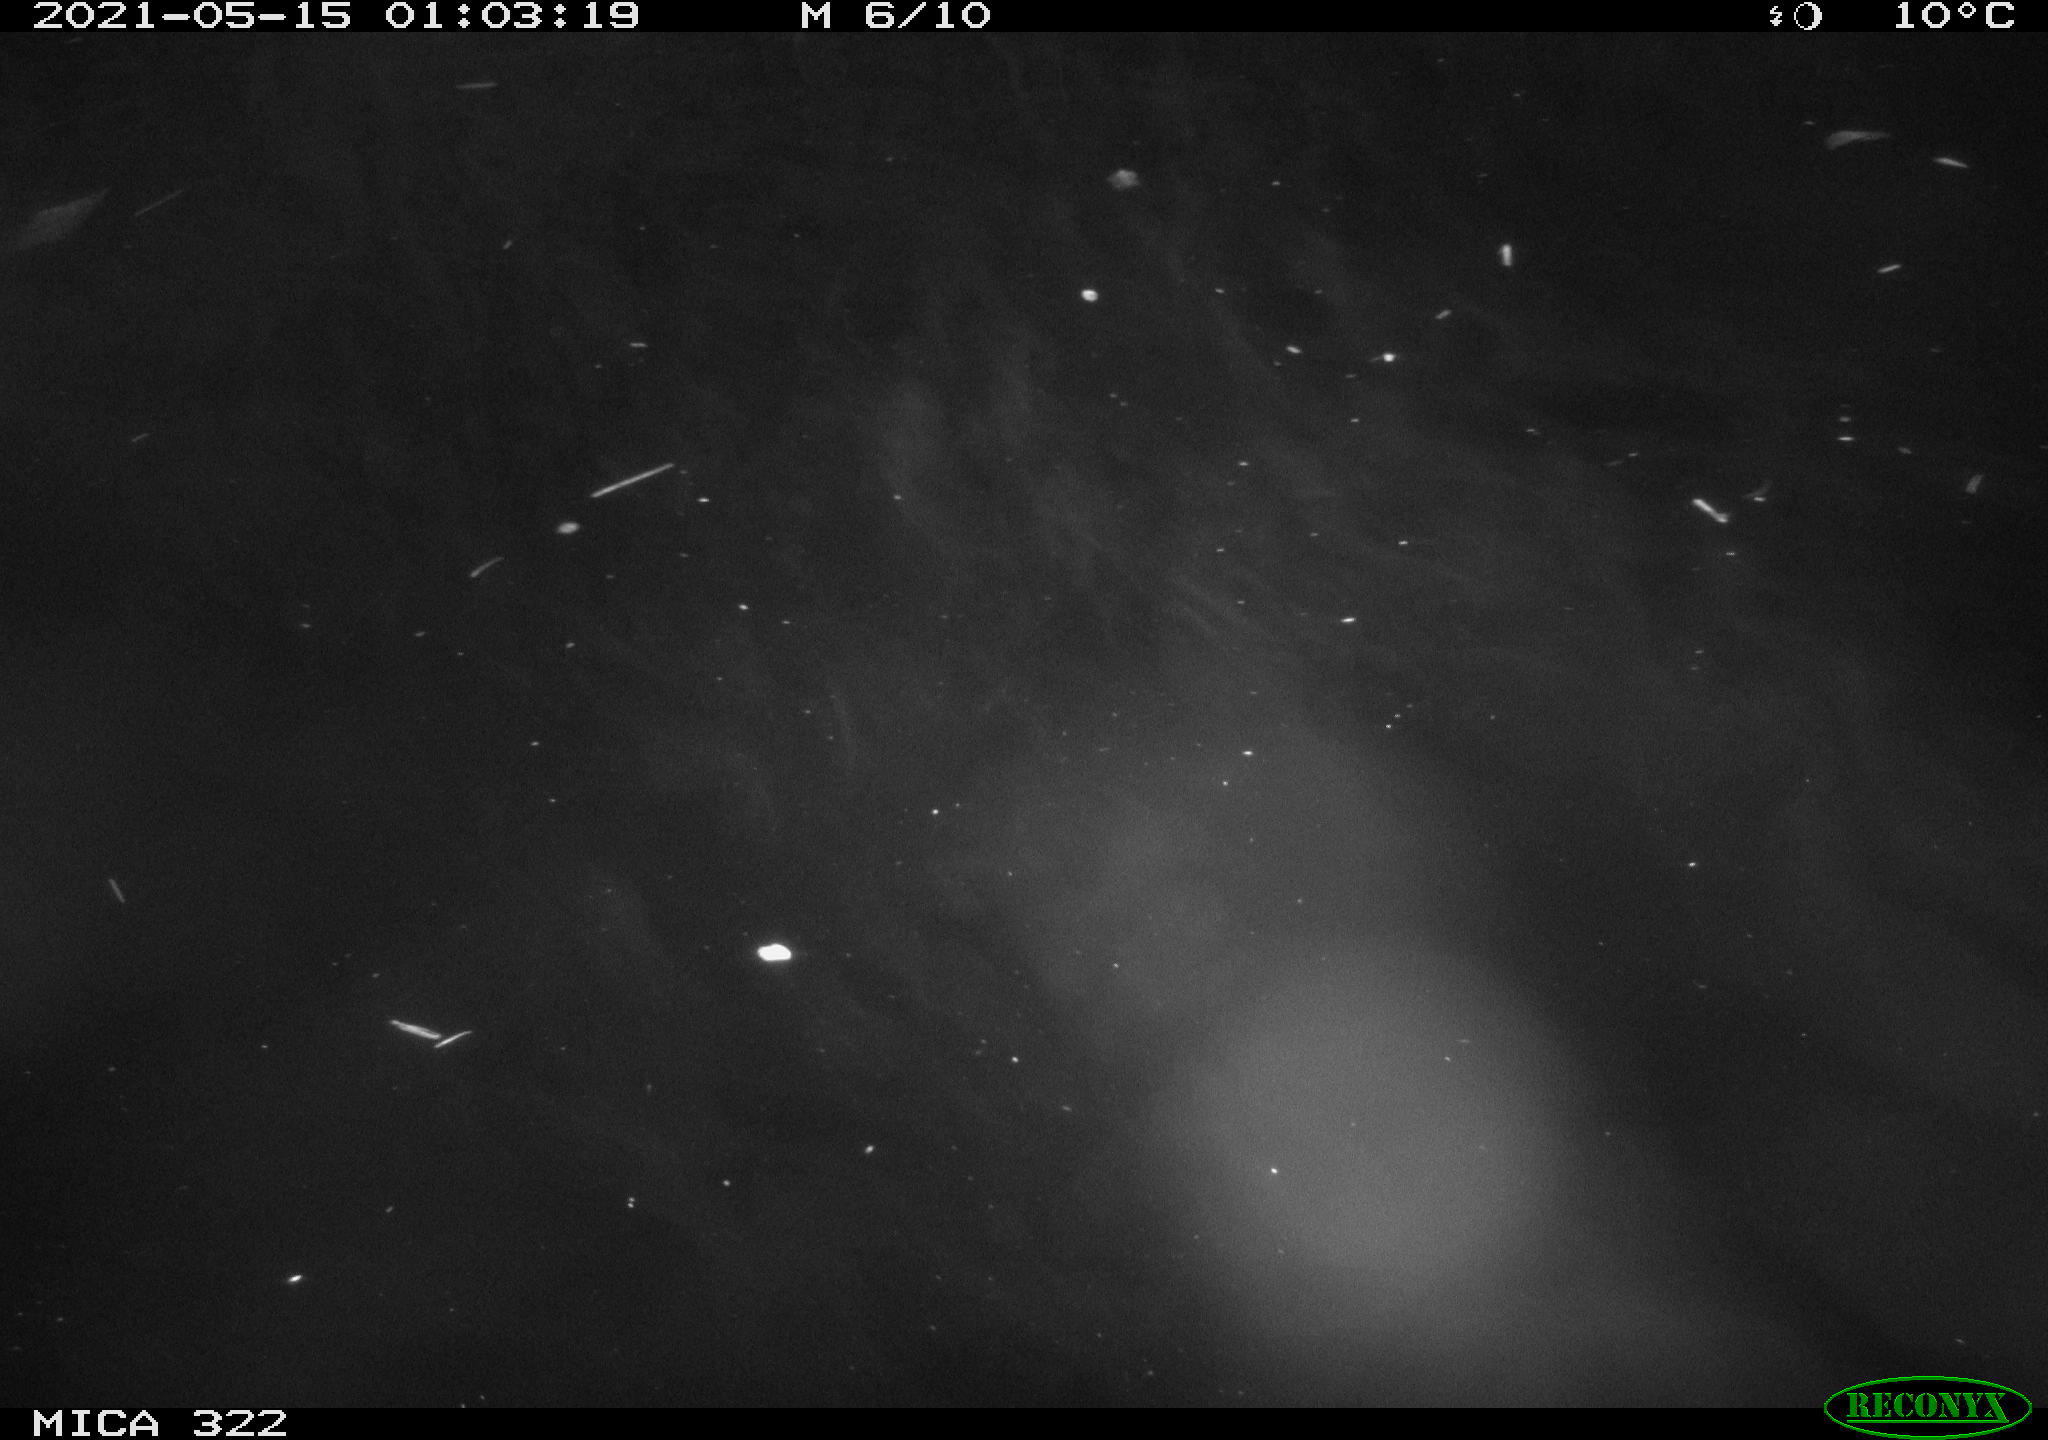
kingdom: Animalia
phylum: Chordata
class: Aves
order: Anseriformes
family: Anatidae
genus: Anas
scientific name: Anas platyrhynchos
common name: Mallard
